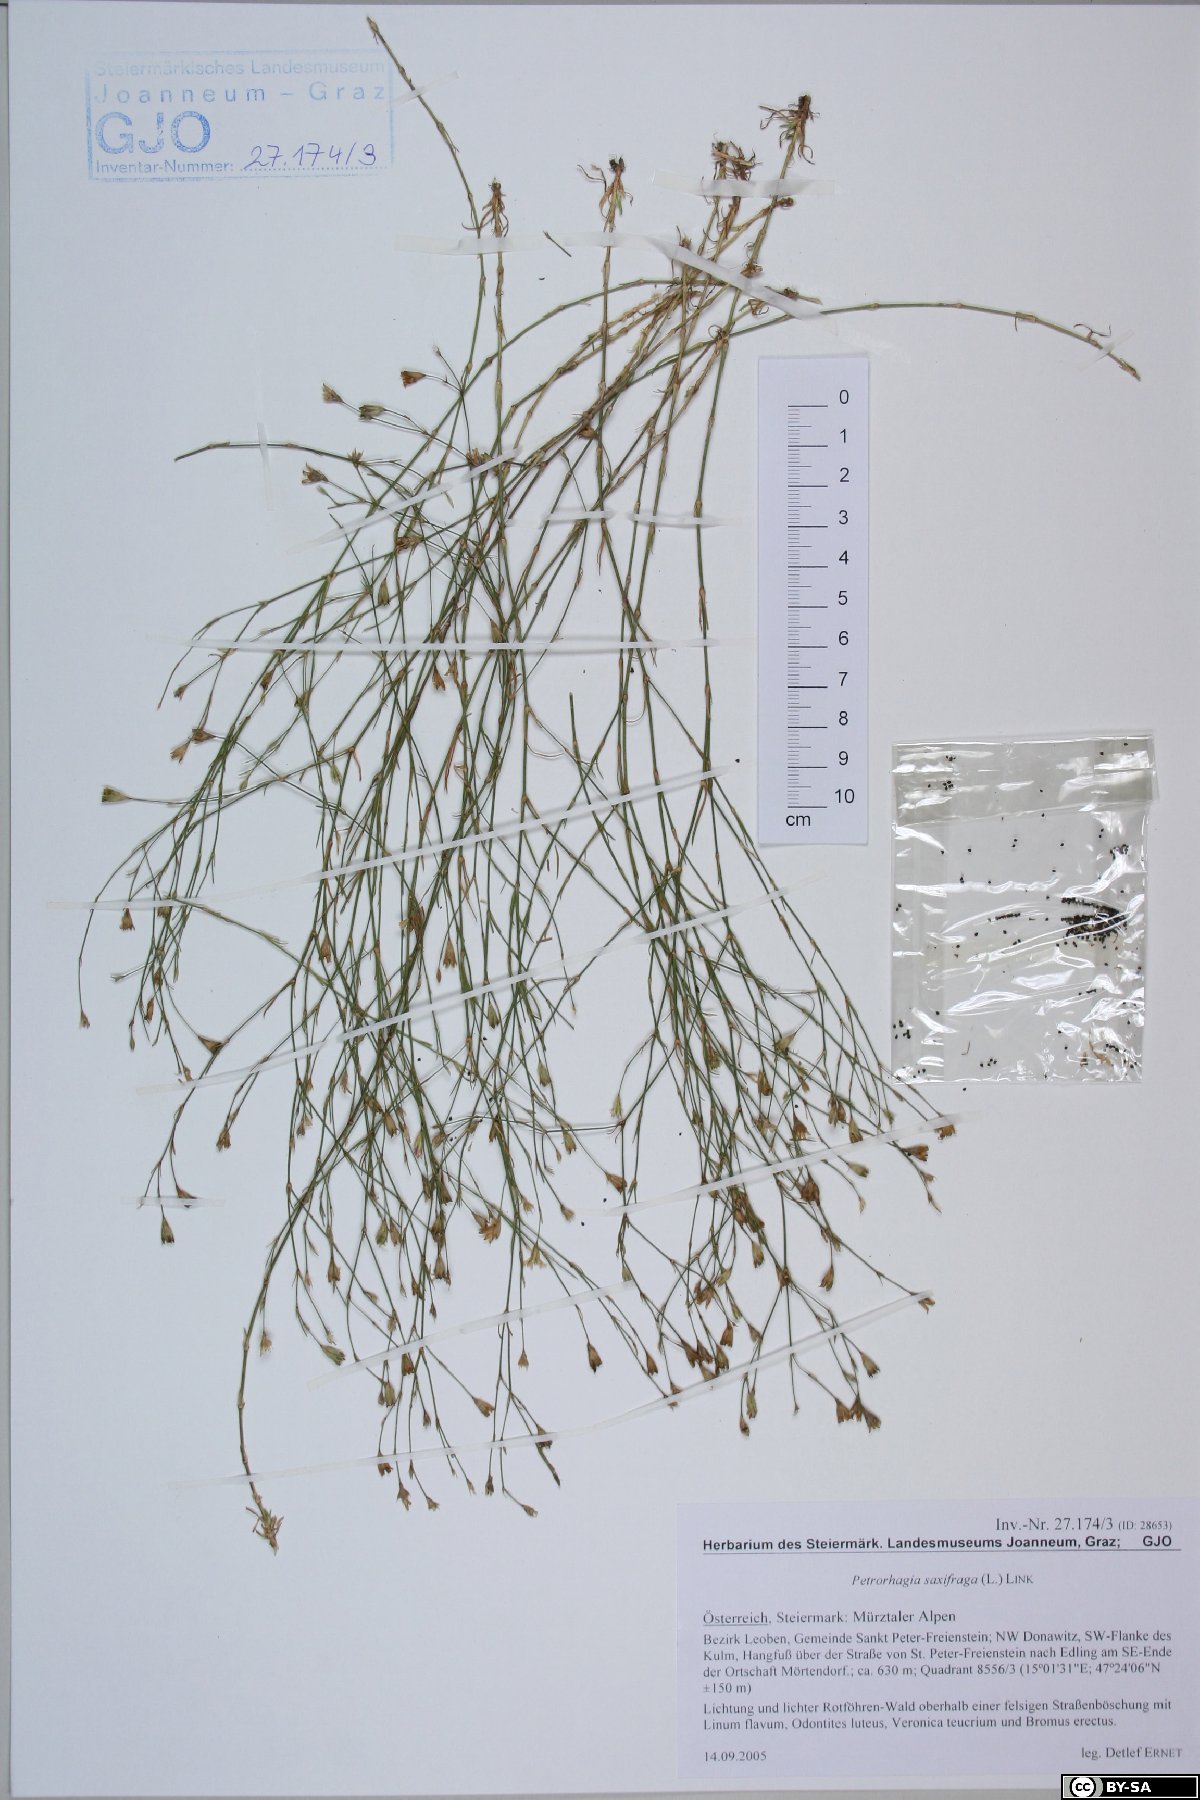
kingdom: Plantae
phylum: Tracheophyta
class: Magnoliopsida
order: Caryophyllales
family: Caryophyllaceae
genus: Petrorhagia
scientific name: Petrorhagia saxifraga
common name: Tunicflower
